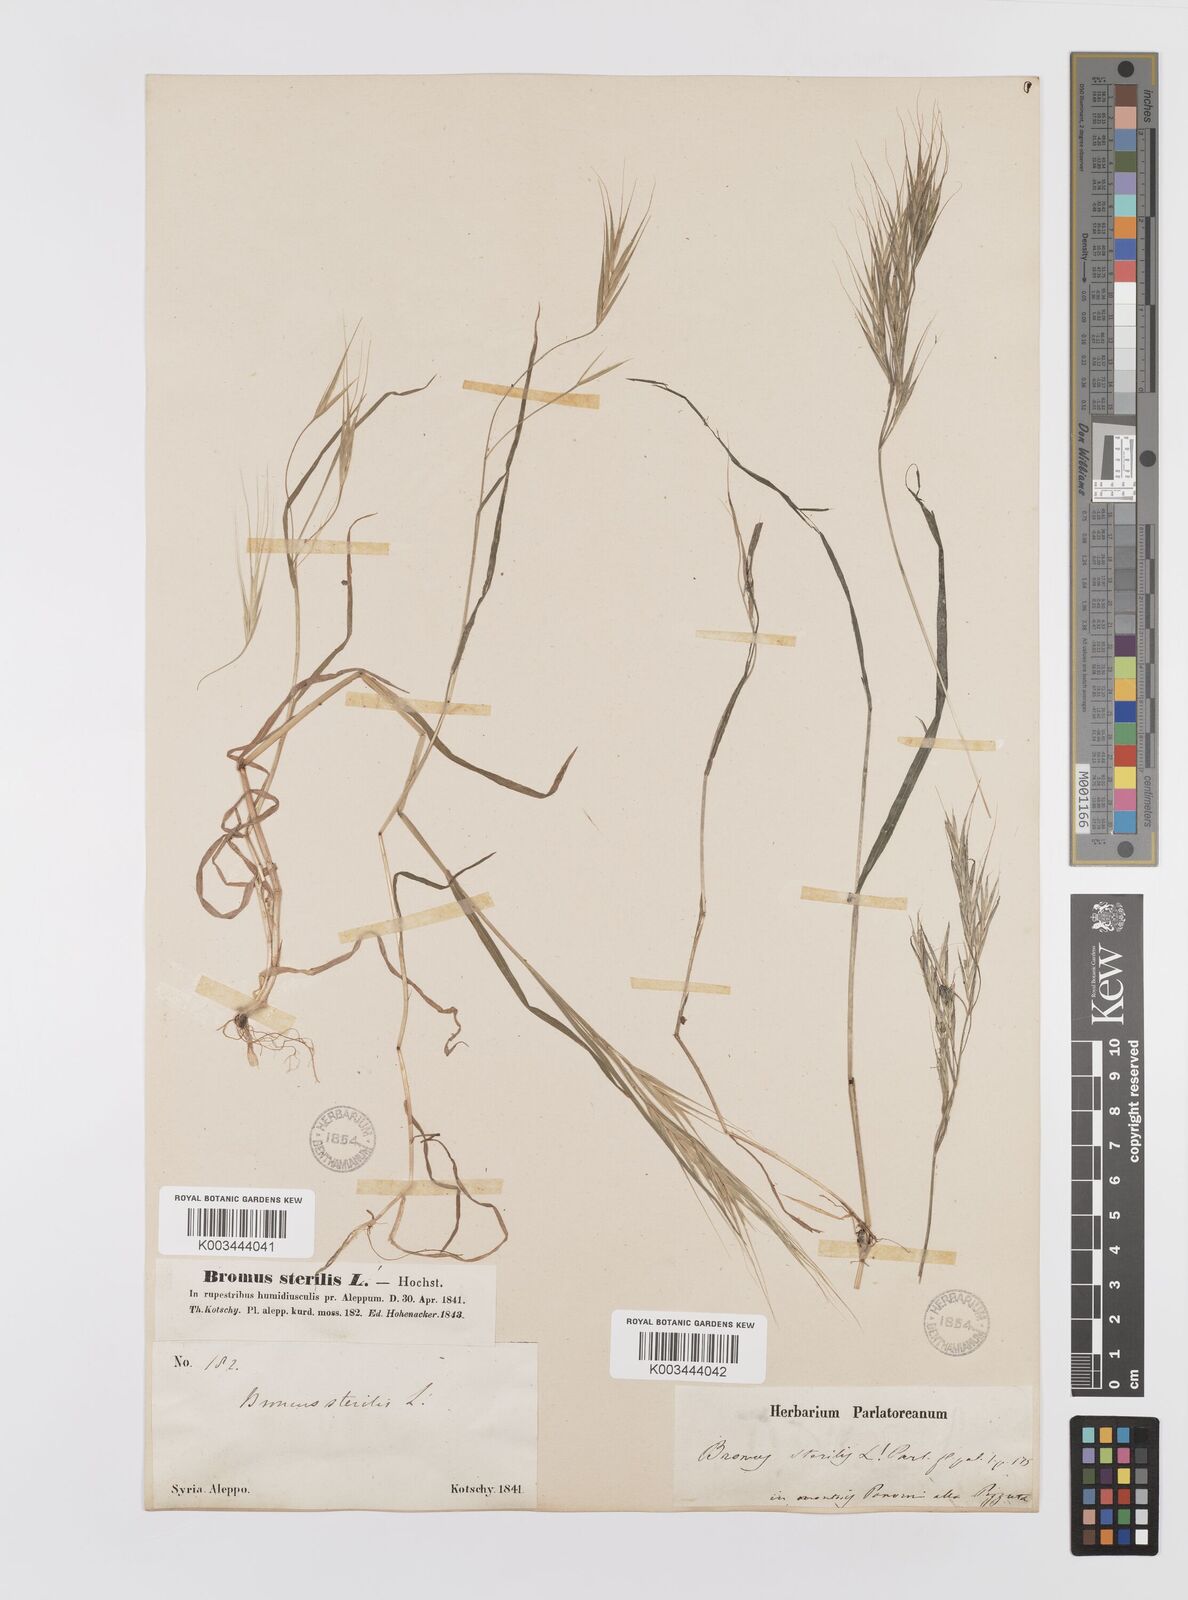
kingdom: Plantae
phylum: Tracheophyta
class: Liliopsida
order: Poales
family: Poaceae
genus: Bromus
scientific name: Bromus sterilis
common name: Poverty brome
